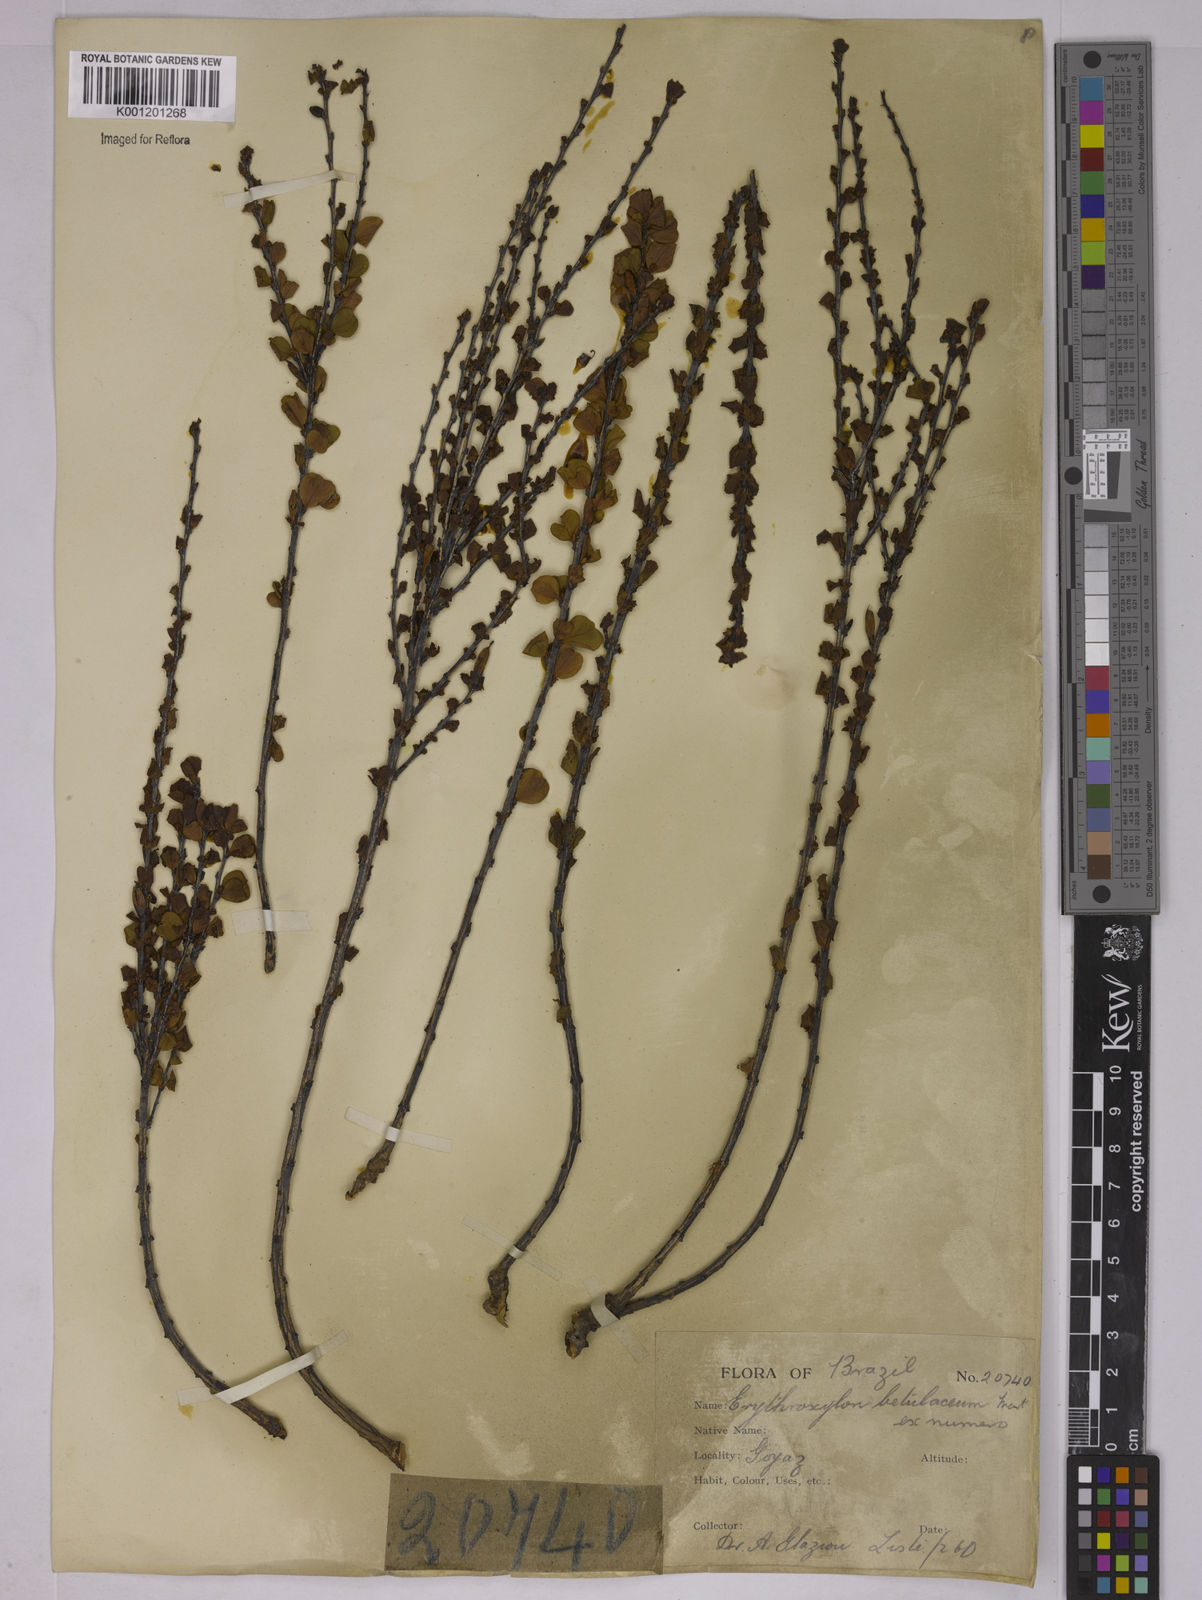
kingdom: Plantae
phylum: Tracheophyta
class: Magnoliopsida
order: Malpighiales
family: Erythroxylaceae
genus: Erythroxylum
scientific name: Erythroxylum betulaceum
